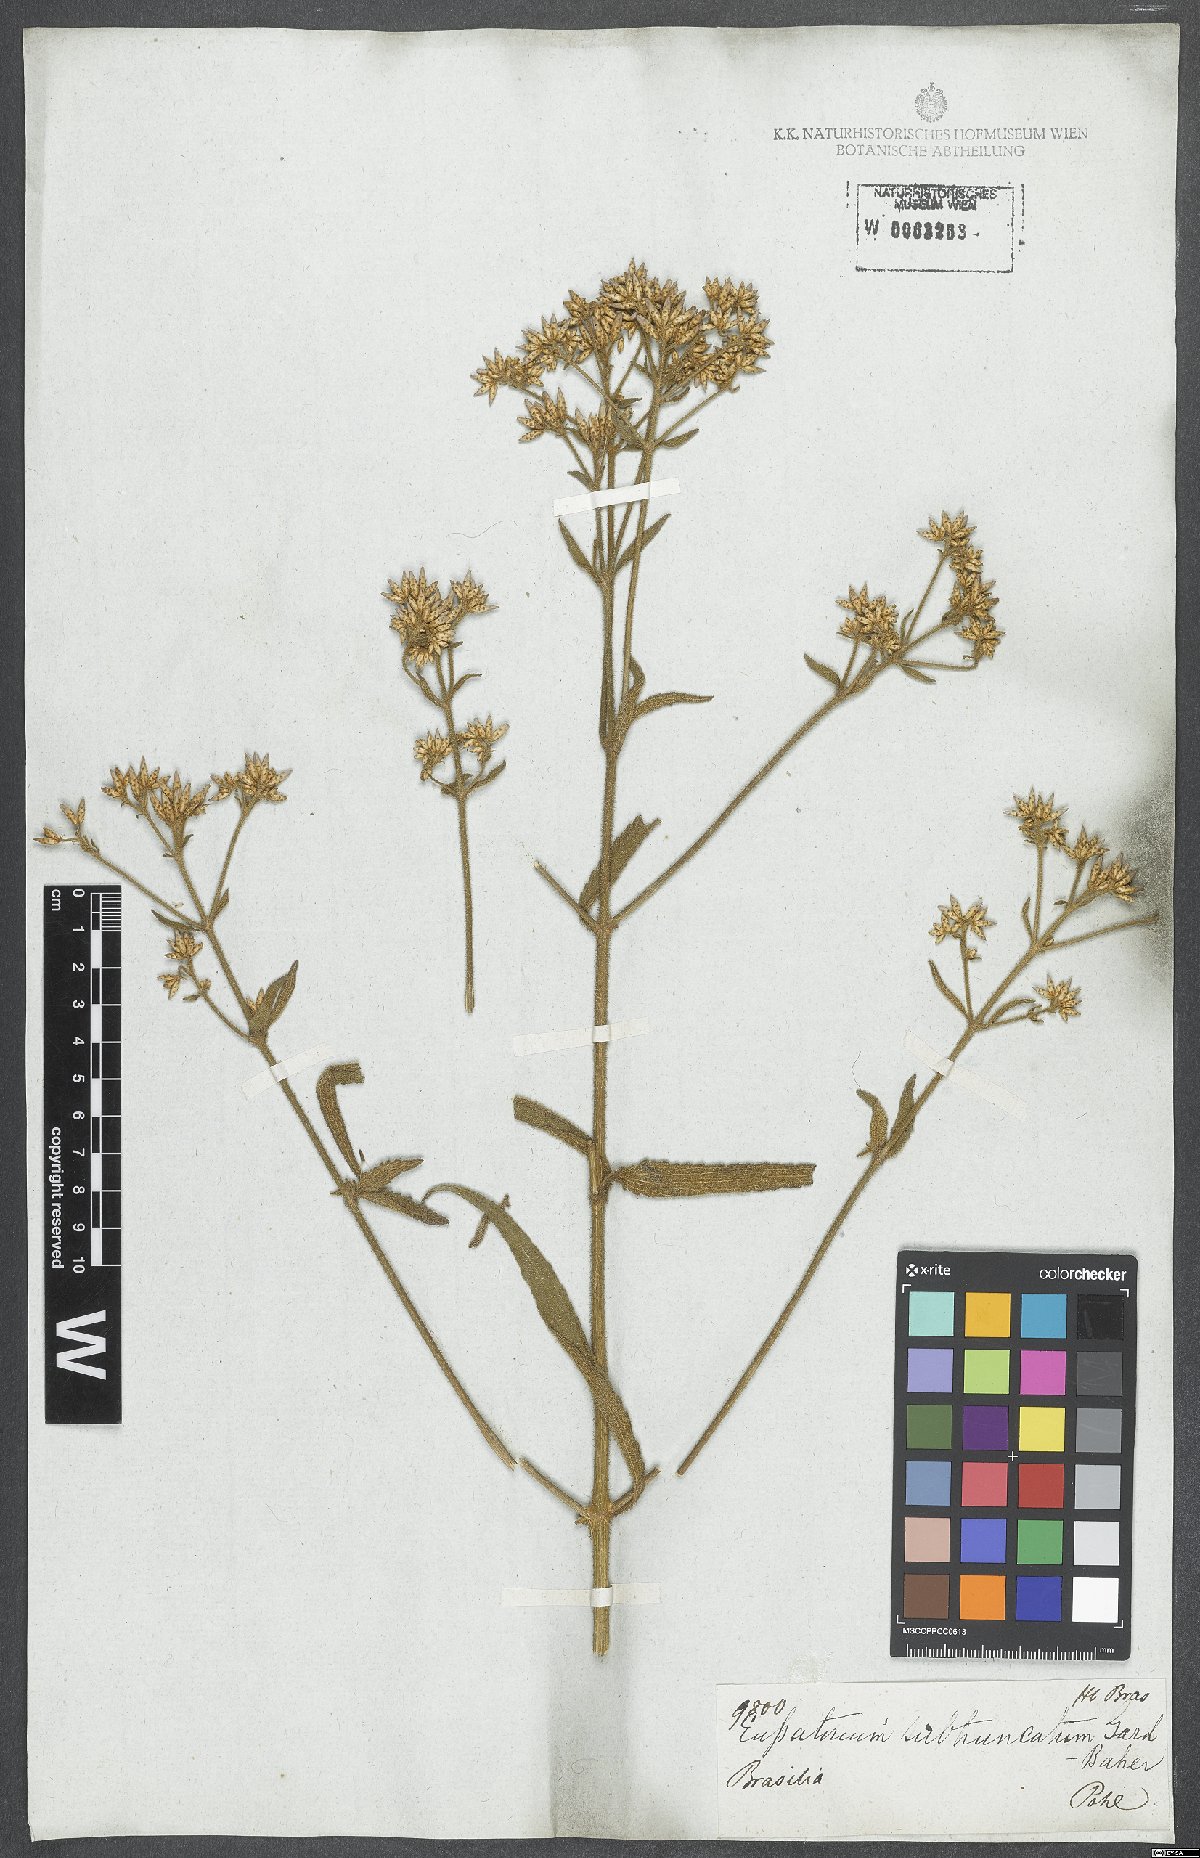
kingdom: Plantae
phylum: Tracheophyta
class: Magnoliopsida
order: Asterales
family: Asteraceae
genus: Eupatorium
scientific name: Eupatorium subtruncatum
